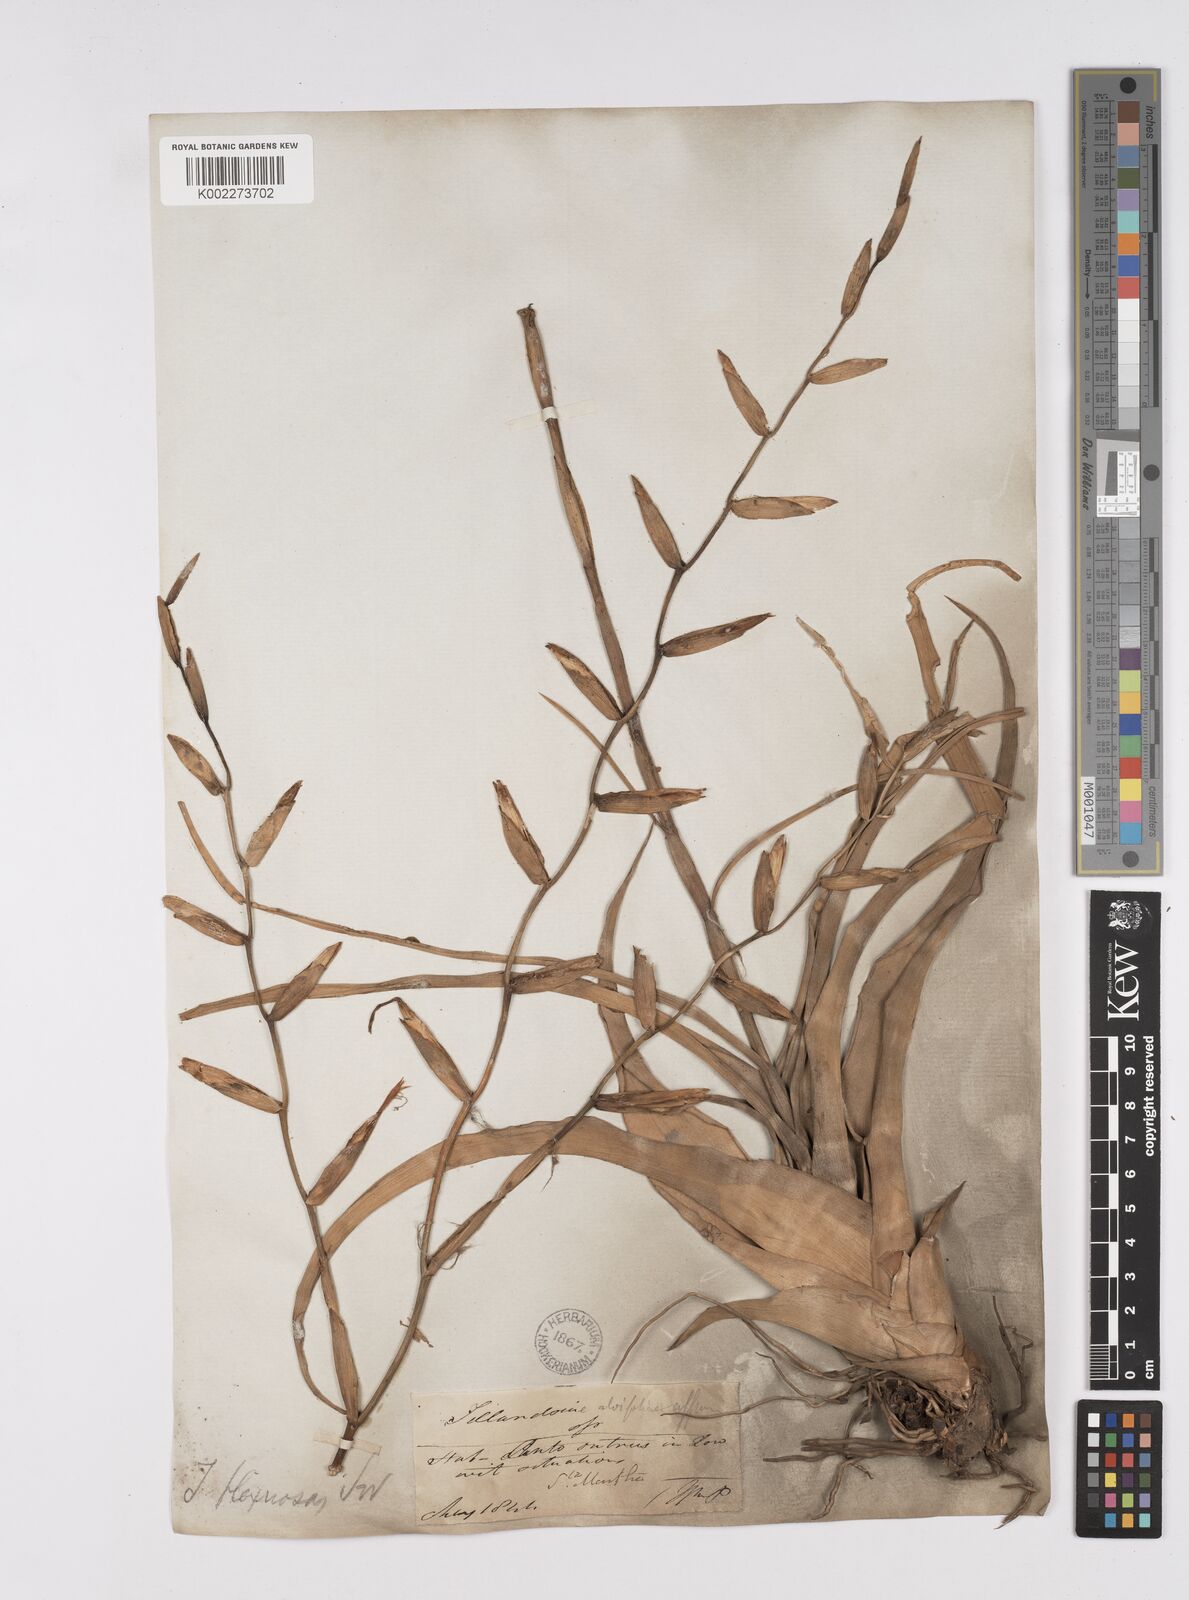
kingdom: Plantae
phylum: Tracheophyta
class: Liliopsida
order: Poales
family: Bromeliaceae
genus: Tillandsia
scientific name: Tillandsia flexuosa
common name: Banded airplant
